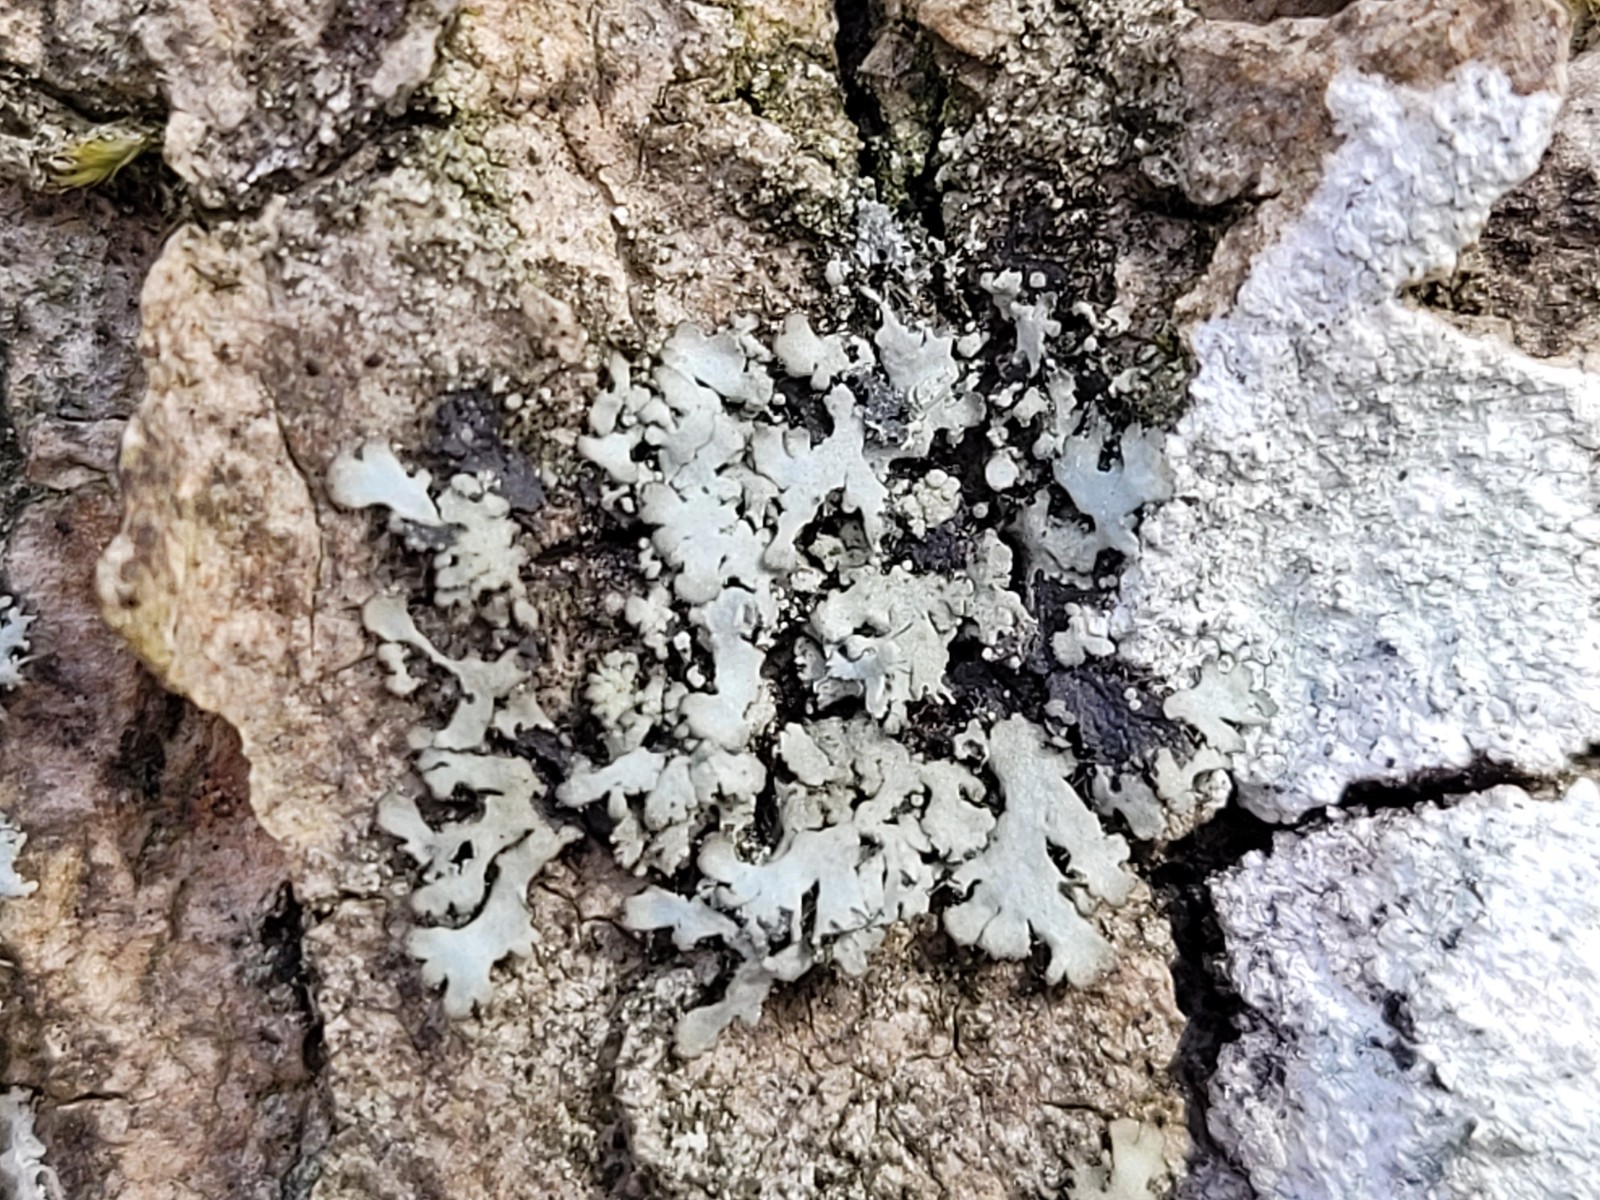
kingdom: Fungi
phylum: Ascomycota
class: Lecanoromycetes
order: Caliciales
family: Physciaceae
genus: Phaeophyscia
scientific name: Phaeophyscia orbicularis
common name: grågrøn rosetlav
